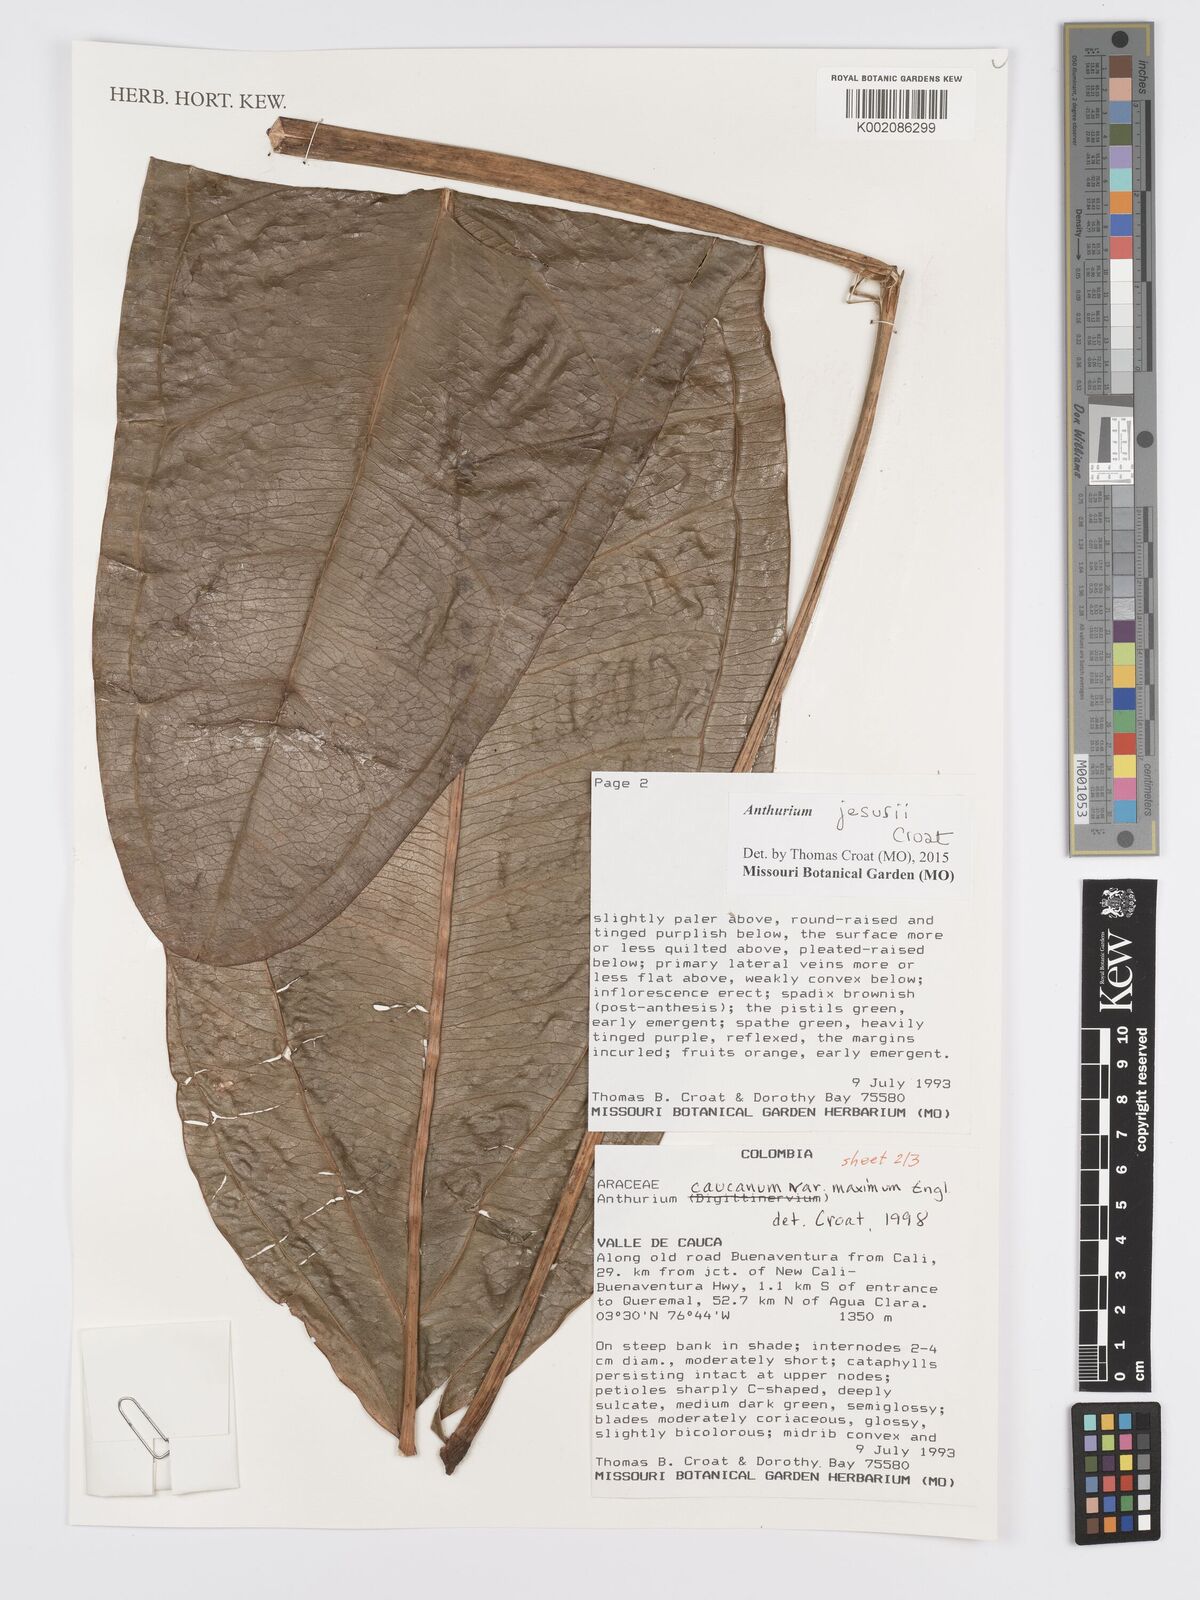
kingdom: Plantae
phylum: Tracheophyta
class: Liliopsida
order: Alismatales
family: Araceae
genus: Anthurium
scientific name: Anthurium jesusii
